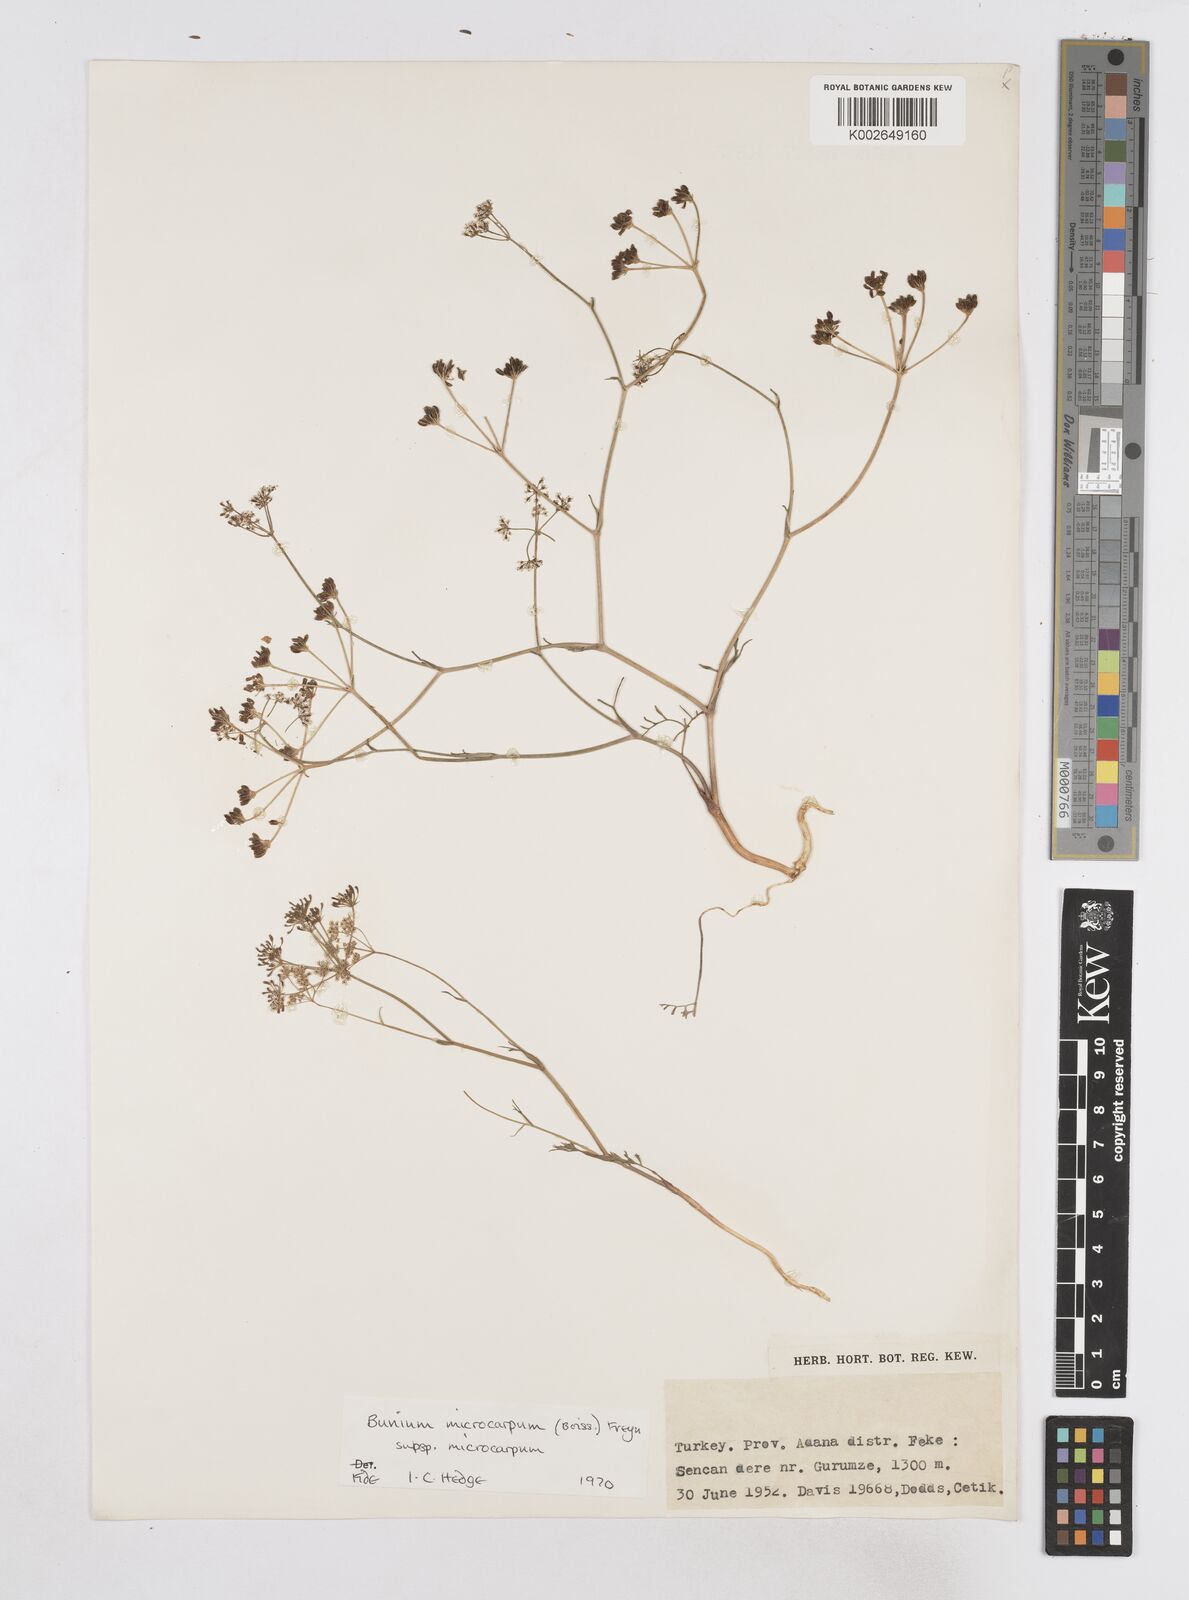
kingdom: Plantae
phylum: Tracheophyta
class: Magnoliopsida
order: Apiales
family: Apiaceae
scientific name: Apiaceae
